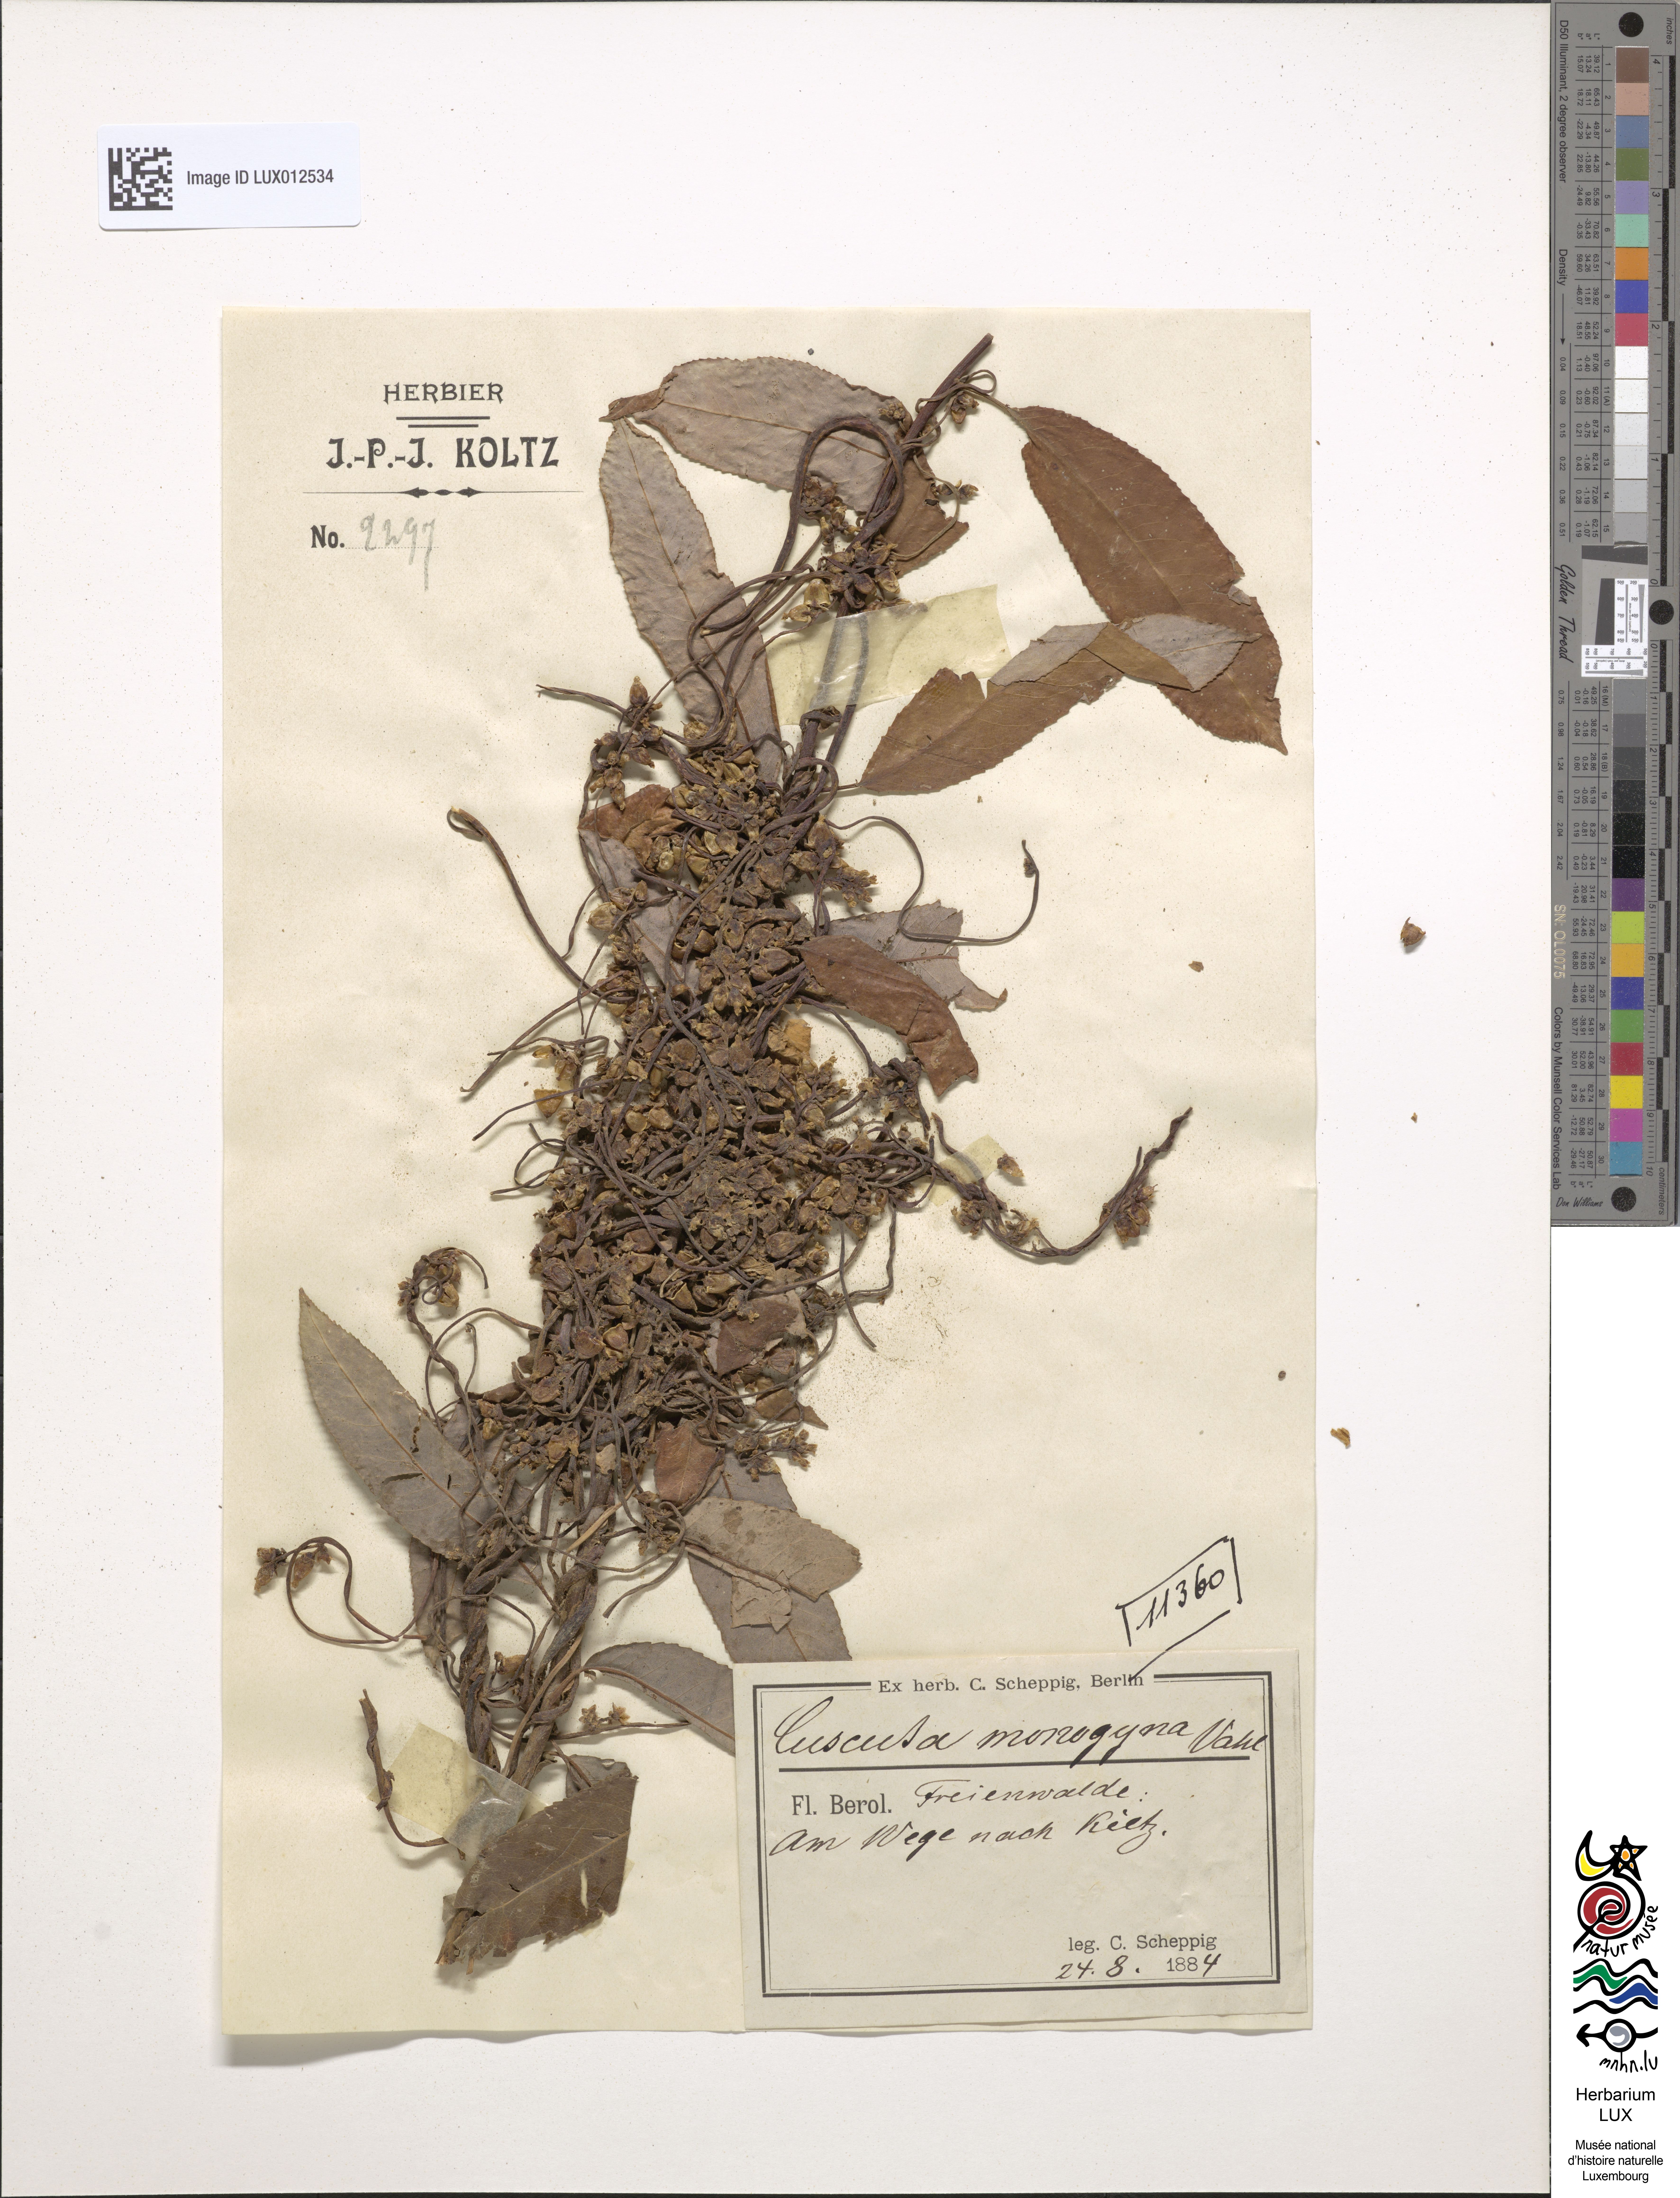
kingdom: Plantae
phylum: Tracheophyta
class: Magnoliopsida
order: Solanales
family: Convolvulaceae
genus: Cuscuta
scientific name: Cuscuta monogyna
